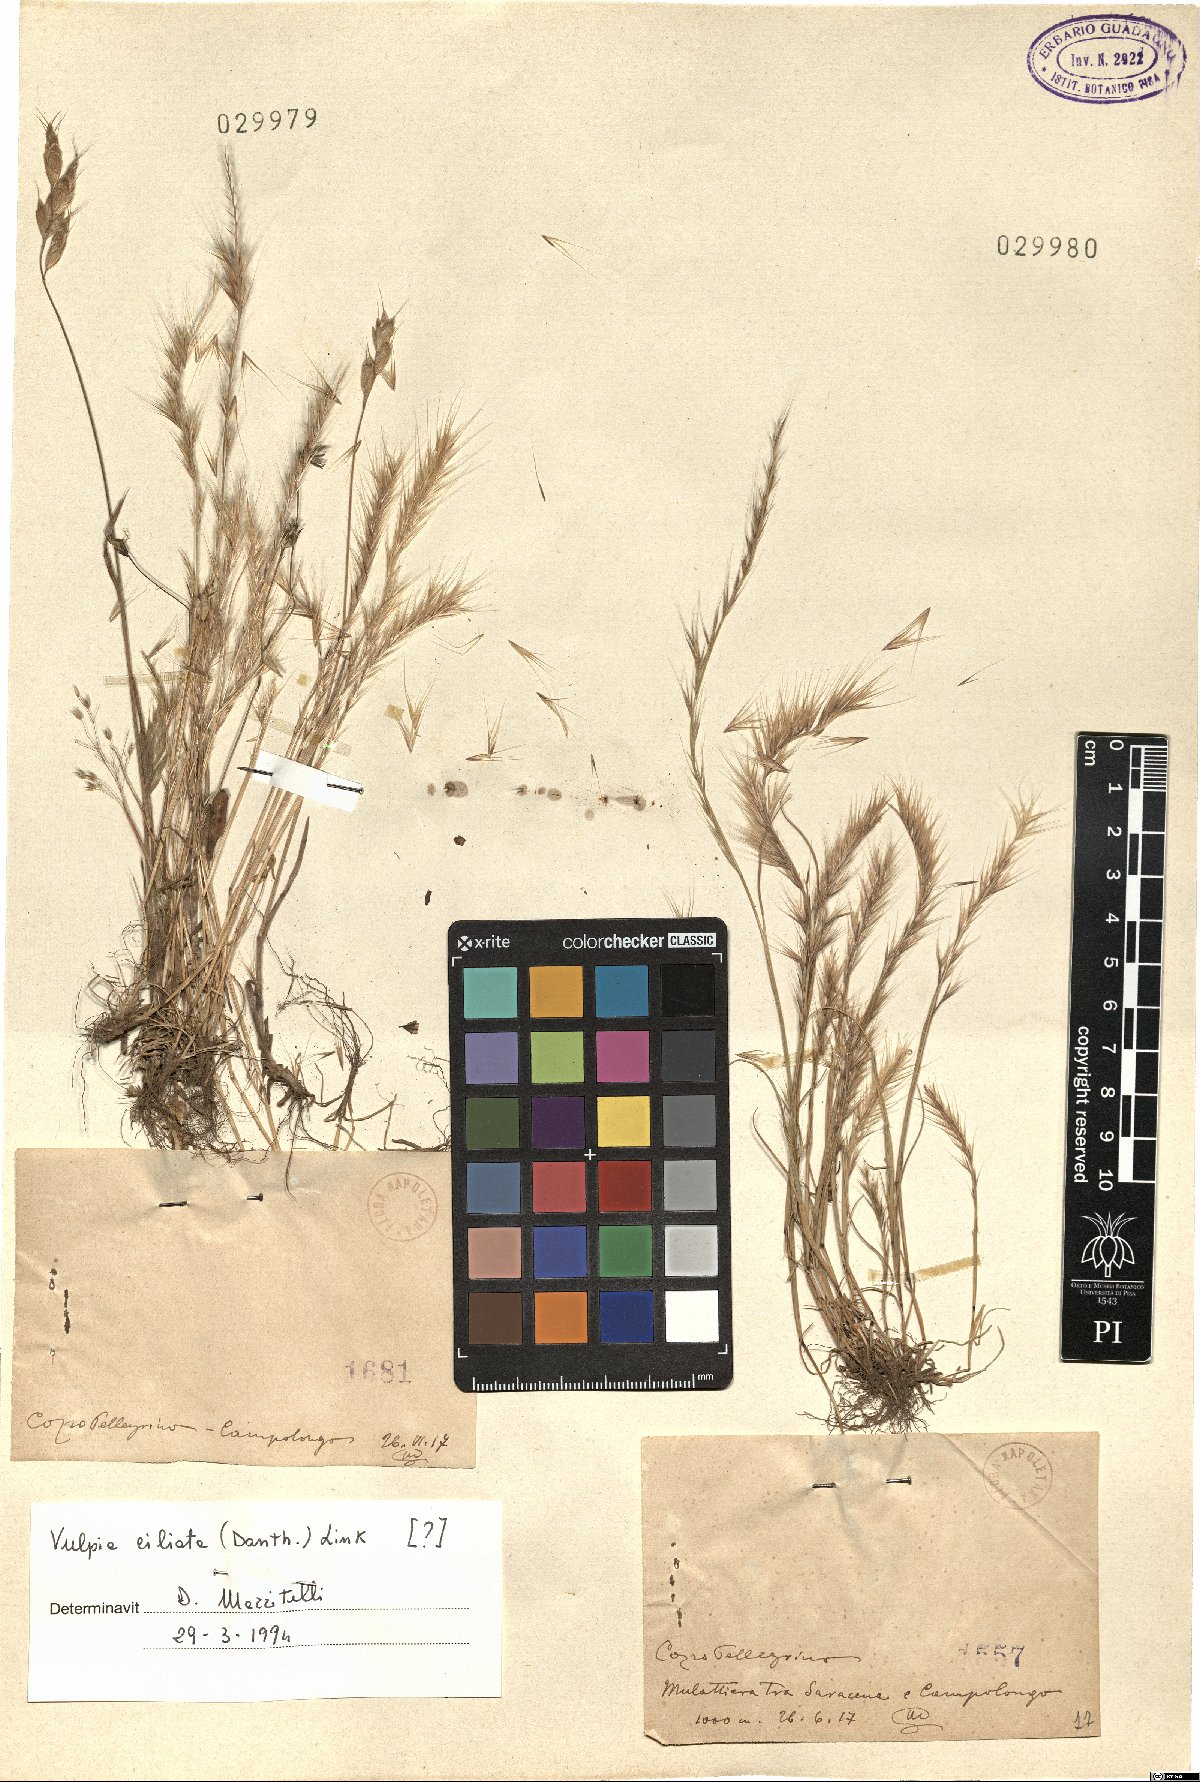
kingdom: Plantae
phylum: Tracheophyta
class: Liliopsida
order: Poales
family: Poaceae
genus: Festuca
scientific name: Festuca ambigua
